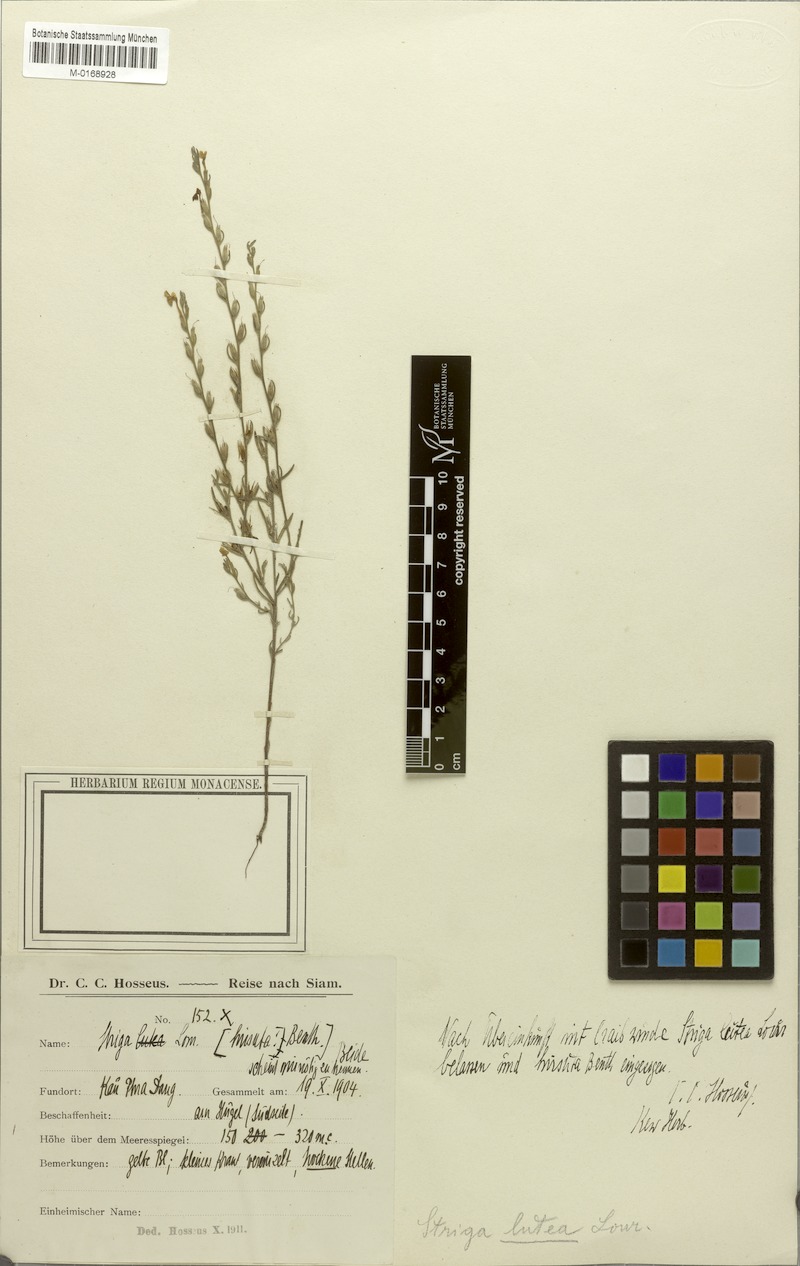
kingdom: Plantae
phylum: Tracheophyta
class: Magnoliopsida
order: Lamiales
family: Orobanchaceae
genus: Striga
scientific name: Striga hirsuta
